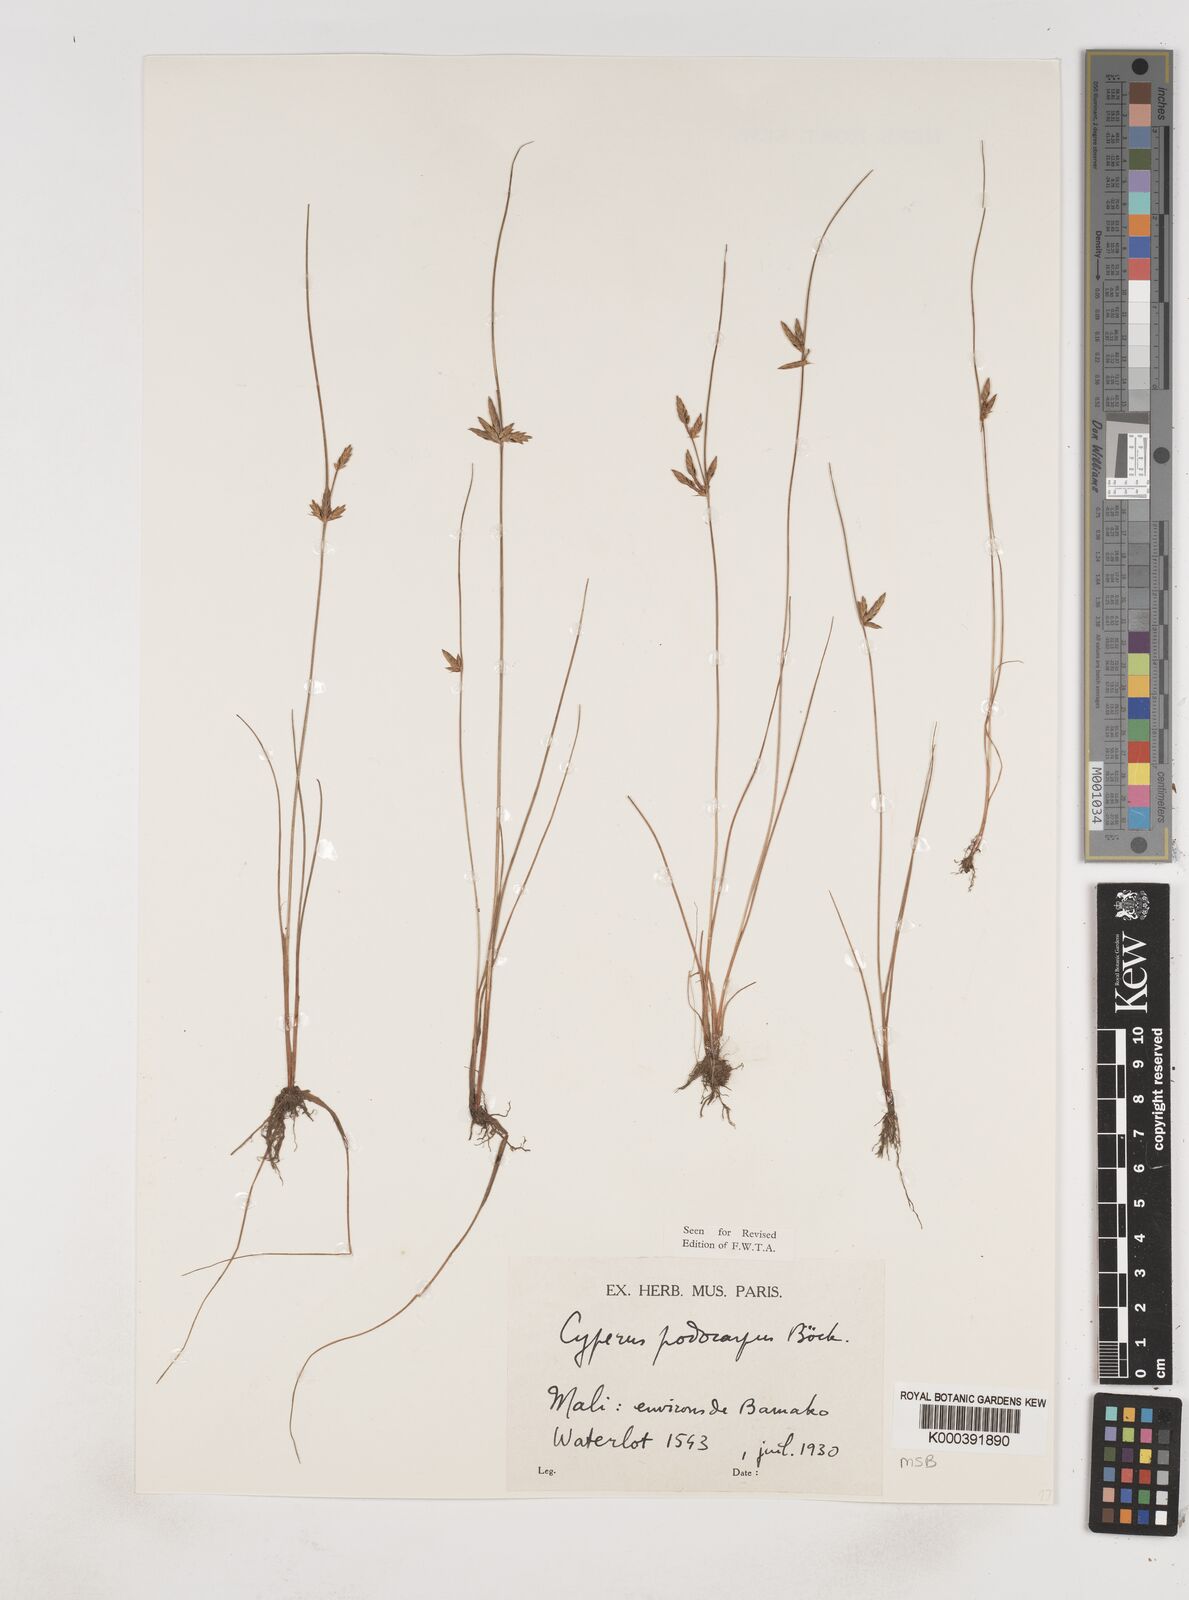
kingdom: Plantae
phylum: Tracheophyta
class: Liliopsida
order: Poales
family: Cyperaceae
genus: Cyperus
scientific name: Cyperus podocarpus
